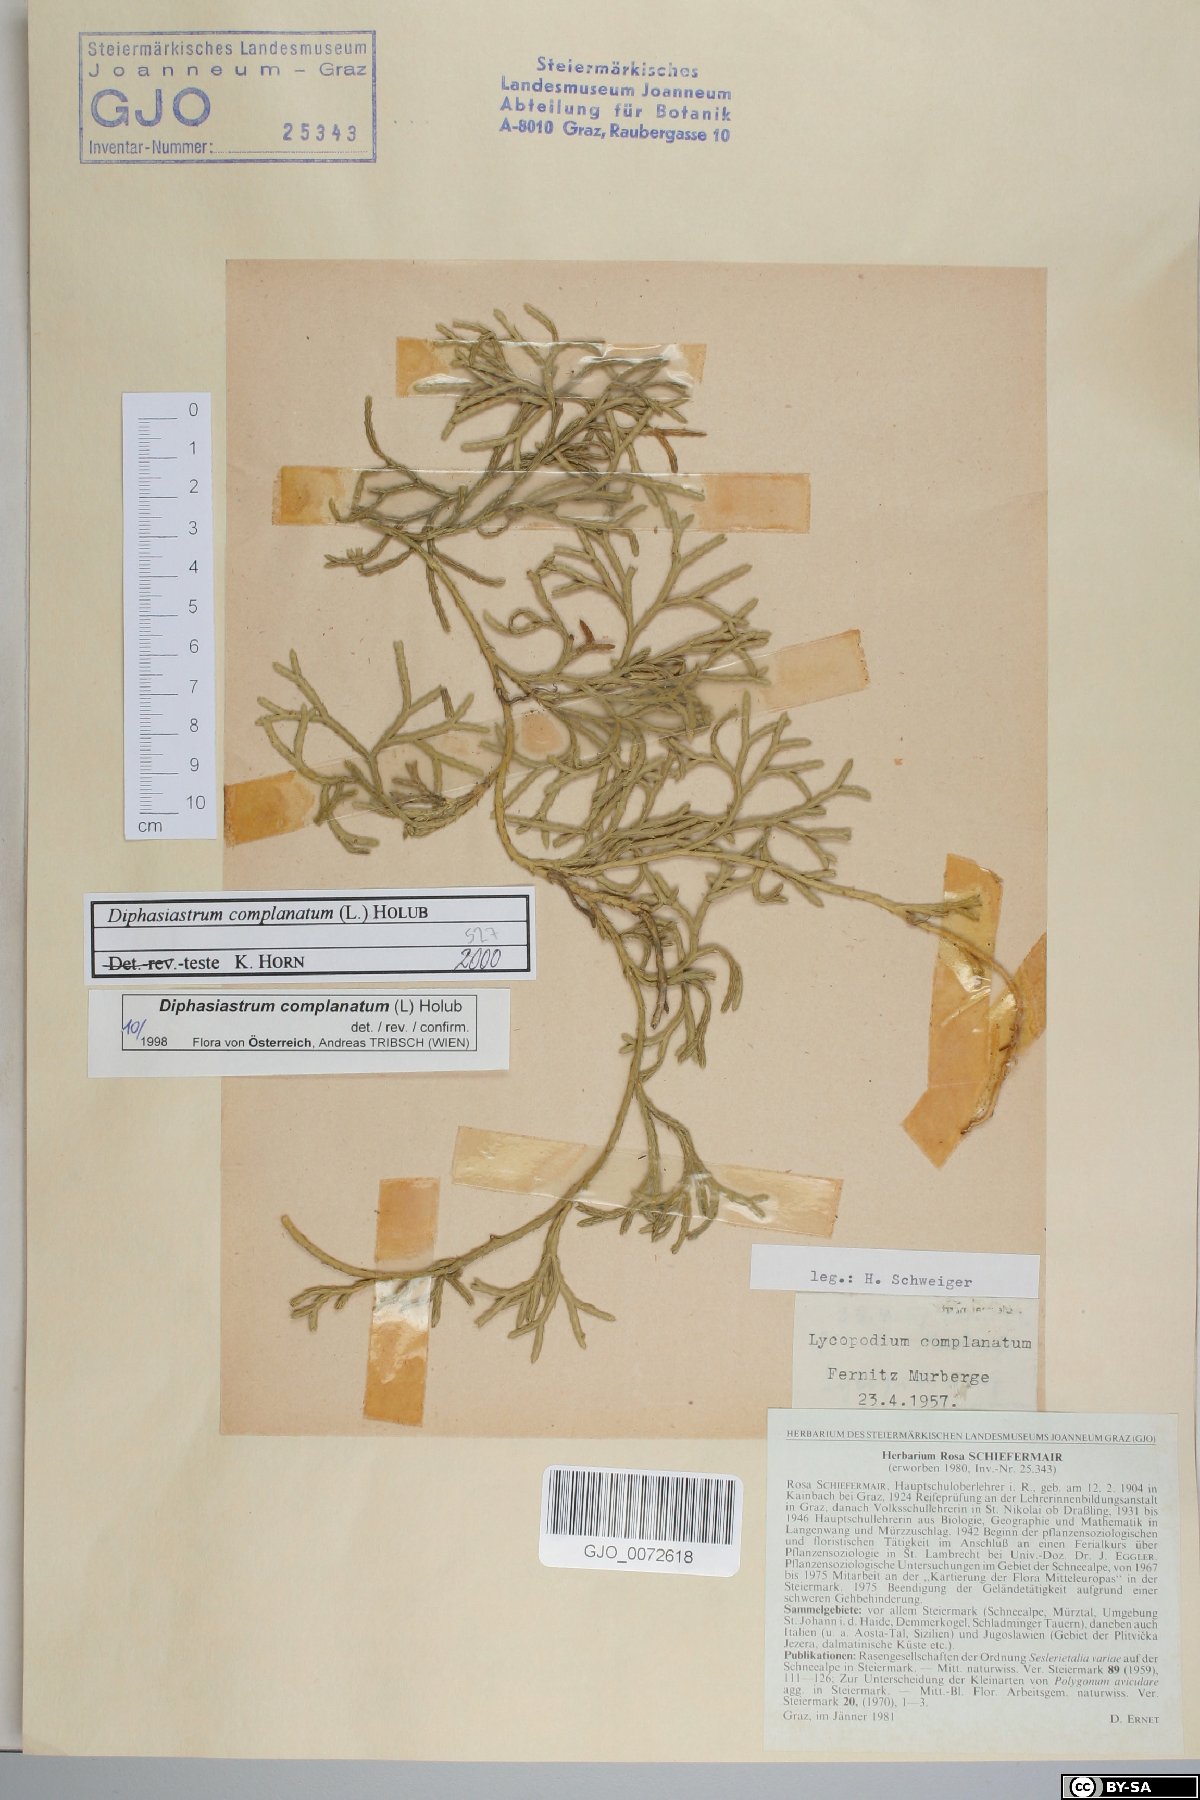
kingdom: Plantae
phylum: Tracheophyta
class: Lycopodiopsida
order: Lycopodiales
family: Lycopodiaceae
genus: Diphasiastrum
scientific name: Diphasiastrum complanatum
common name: Northern running-pine
